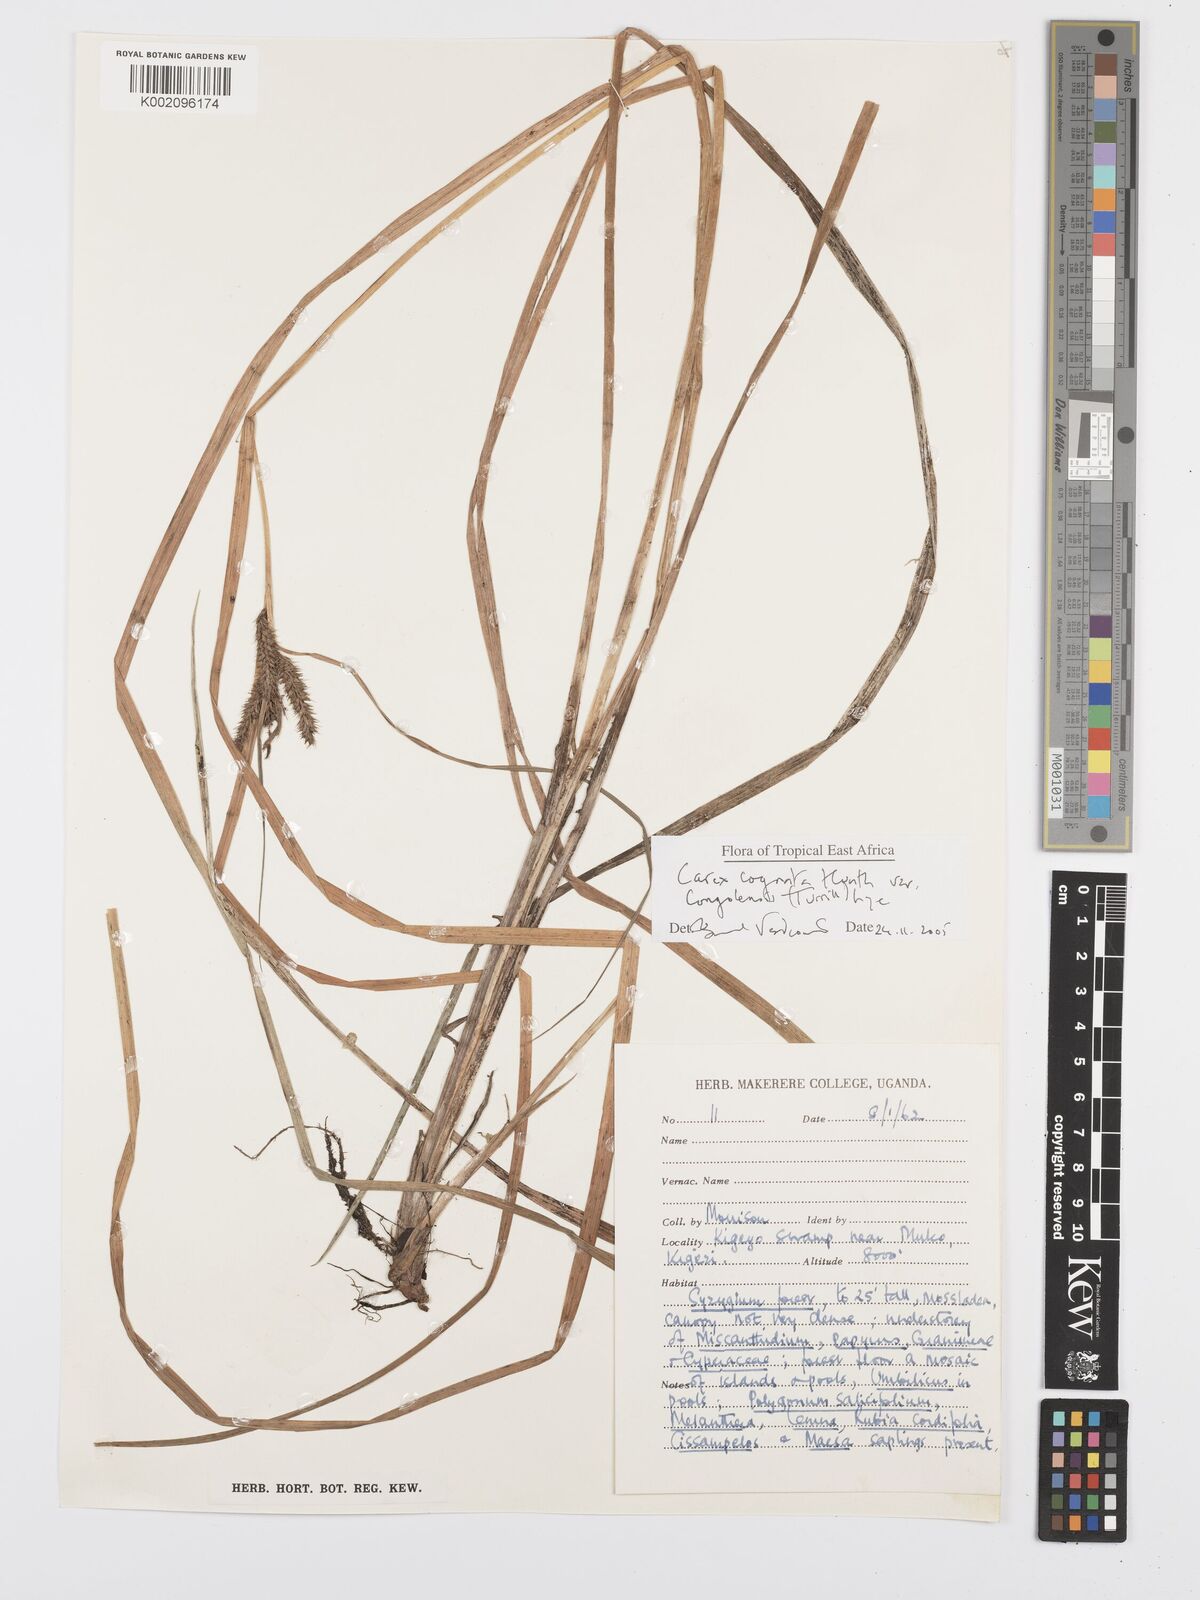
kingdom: Plantae
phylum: Tracheophyta
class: Liliopsida
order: Poales
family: Cyperaceae
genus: Carex
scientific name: Carex cognata
